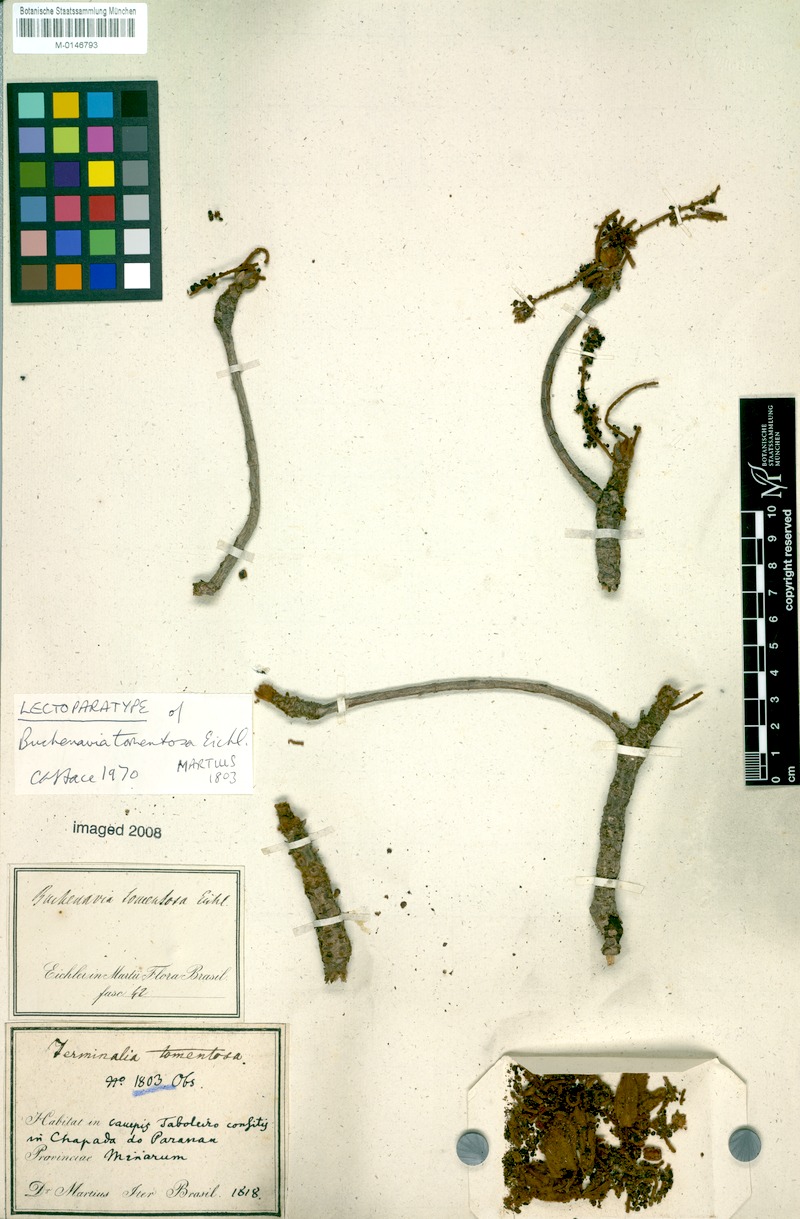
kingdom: Plantae
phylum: Tracheophyta
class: Magnoliopsida
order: Myrtales
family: Combretaceae
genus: Terminalia
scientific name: Terminalia corrugata
